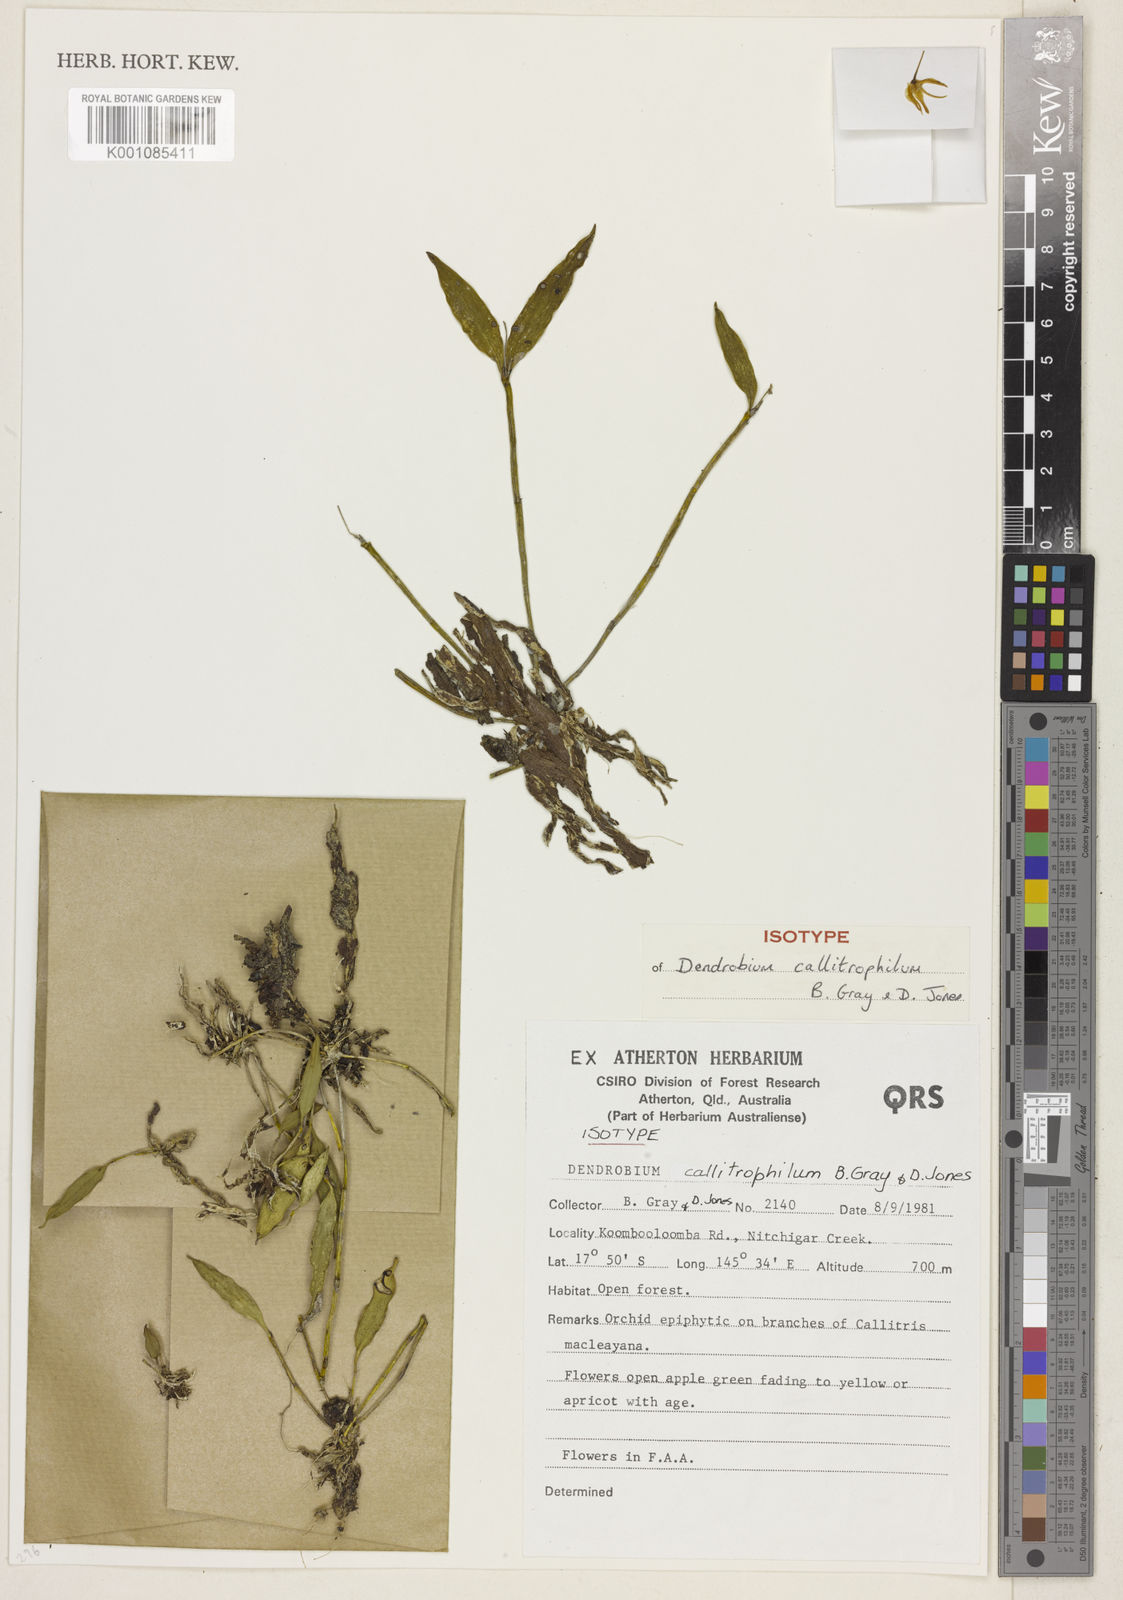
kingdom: Plantae
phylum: Tracheophyta
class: Liliopsida
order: Asparagales
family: Orchidaceae
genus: Dendrobium
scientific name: Dendrobium callitrophilum
